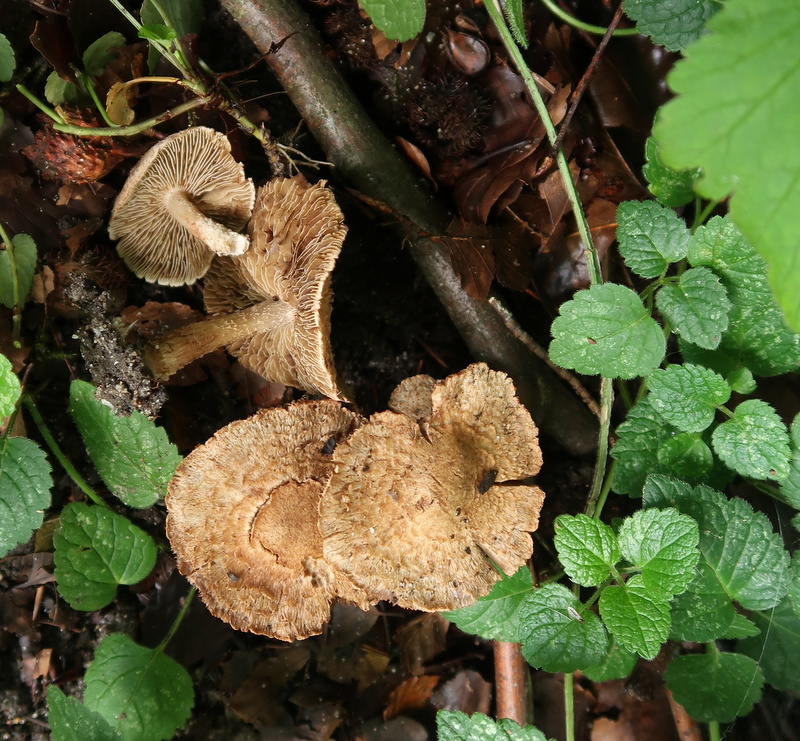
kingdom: Fungi
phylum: Basidiomycota
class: Agaricomycetes
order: Agaricales
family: Inocybaceae
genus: Inosperma
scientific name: Inosperma bongardii
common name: Bongards trævlhat
